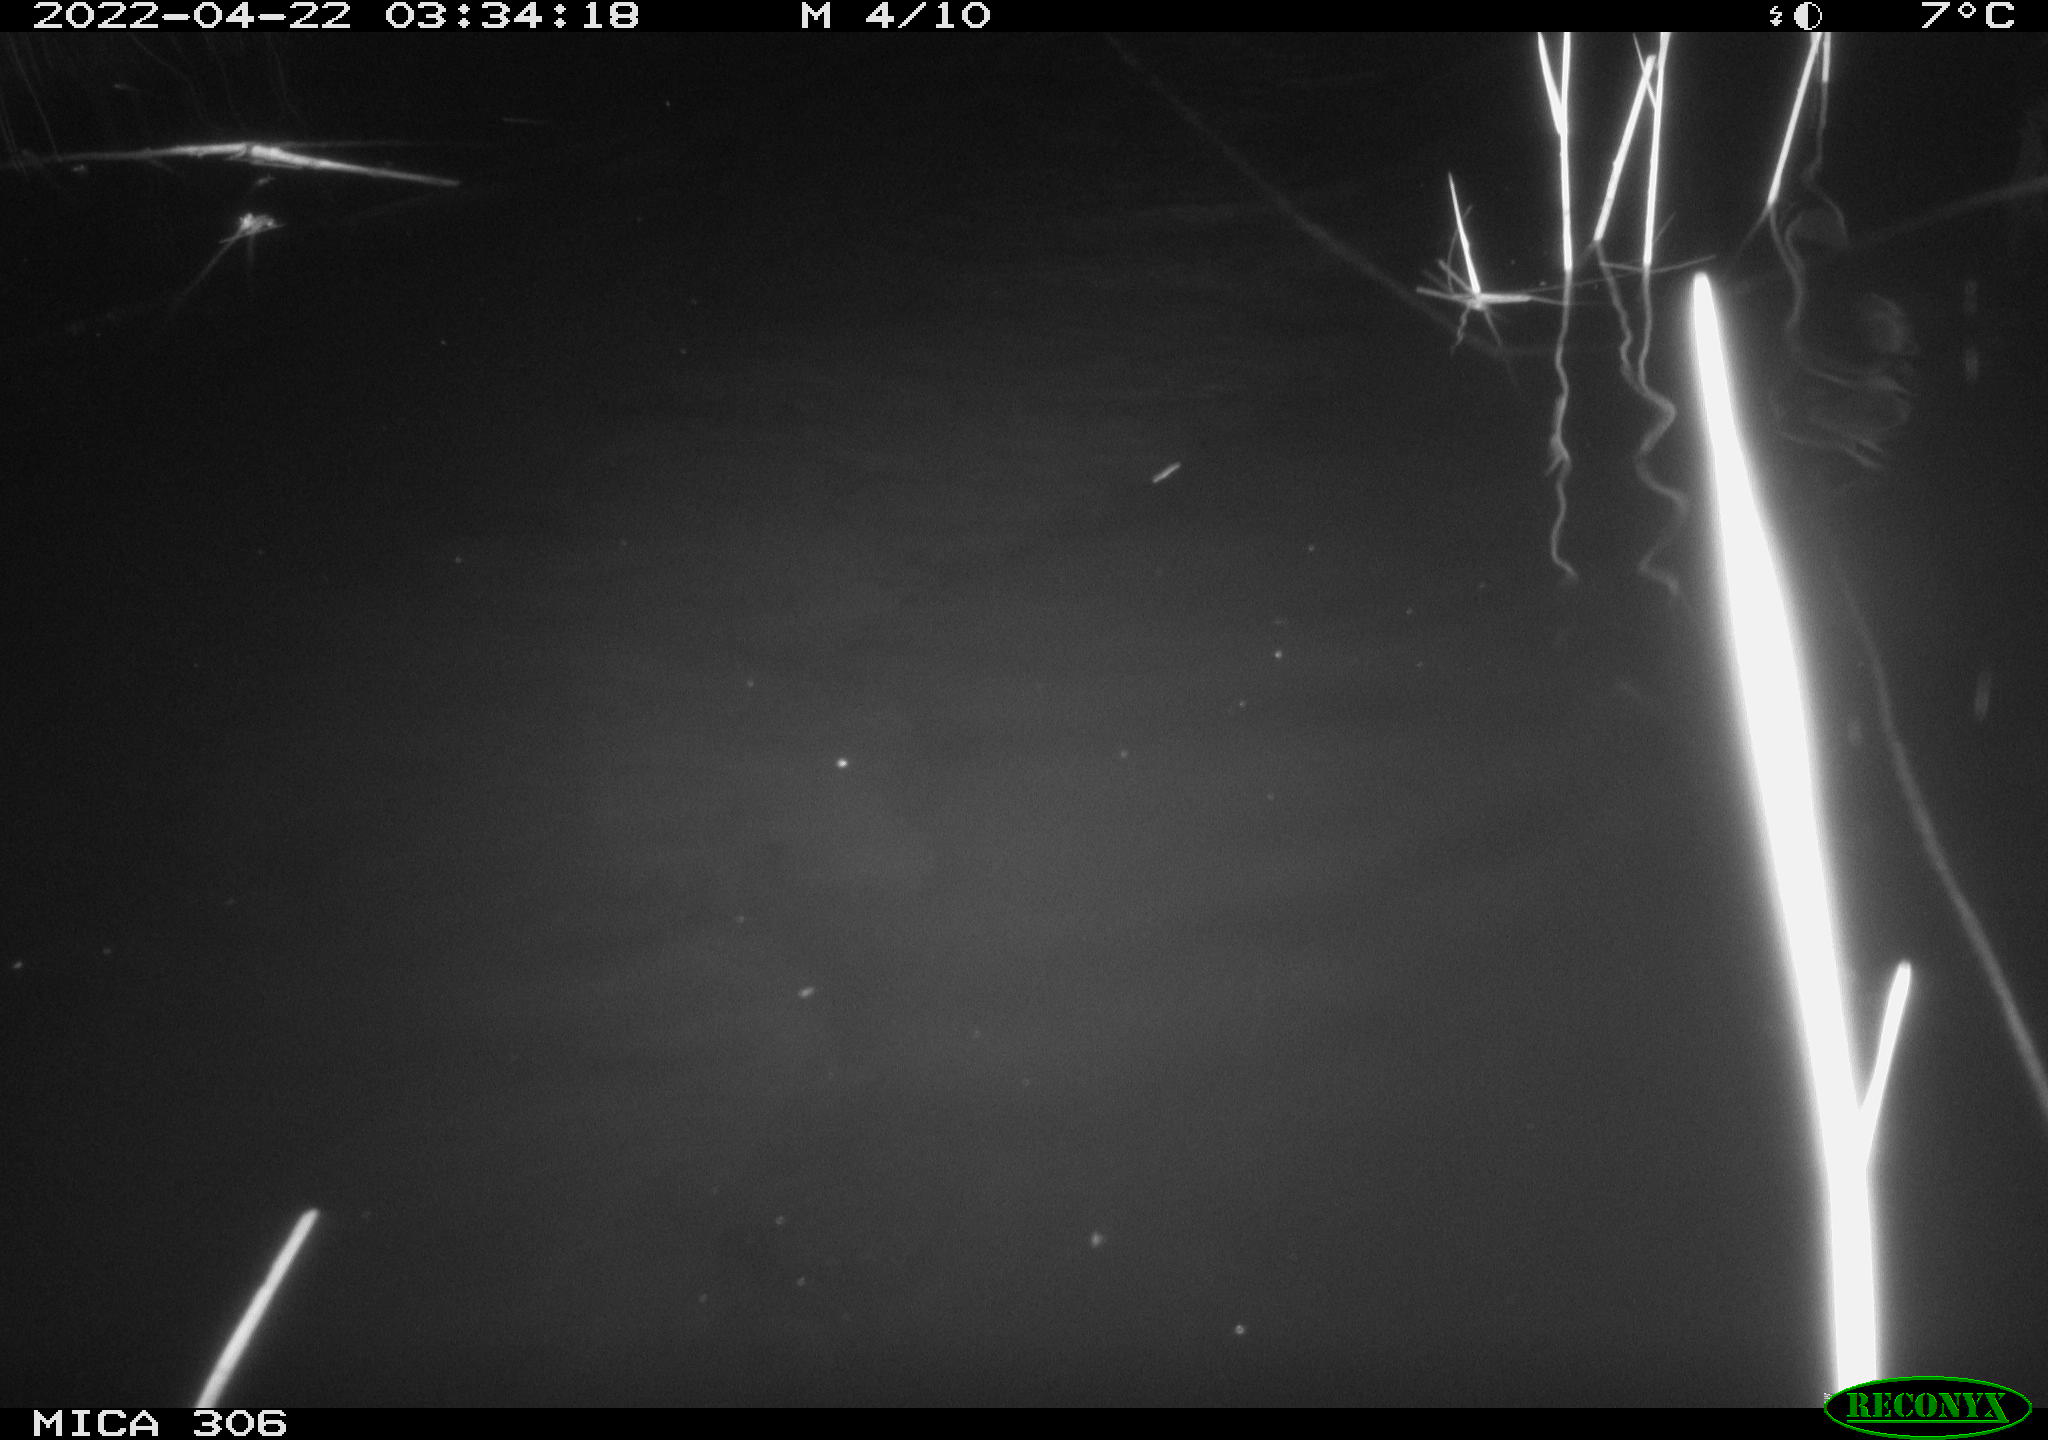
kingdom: Animalia
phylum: Chordata
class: Mammalia
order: Rodentia
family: Muridae
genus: Rattus
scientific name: Rattus norvegicus
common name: Brown rat
